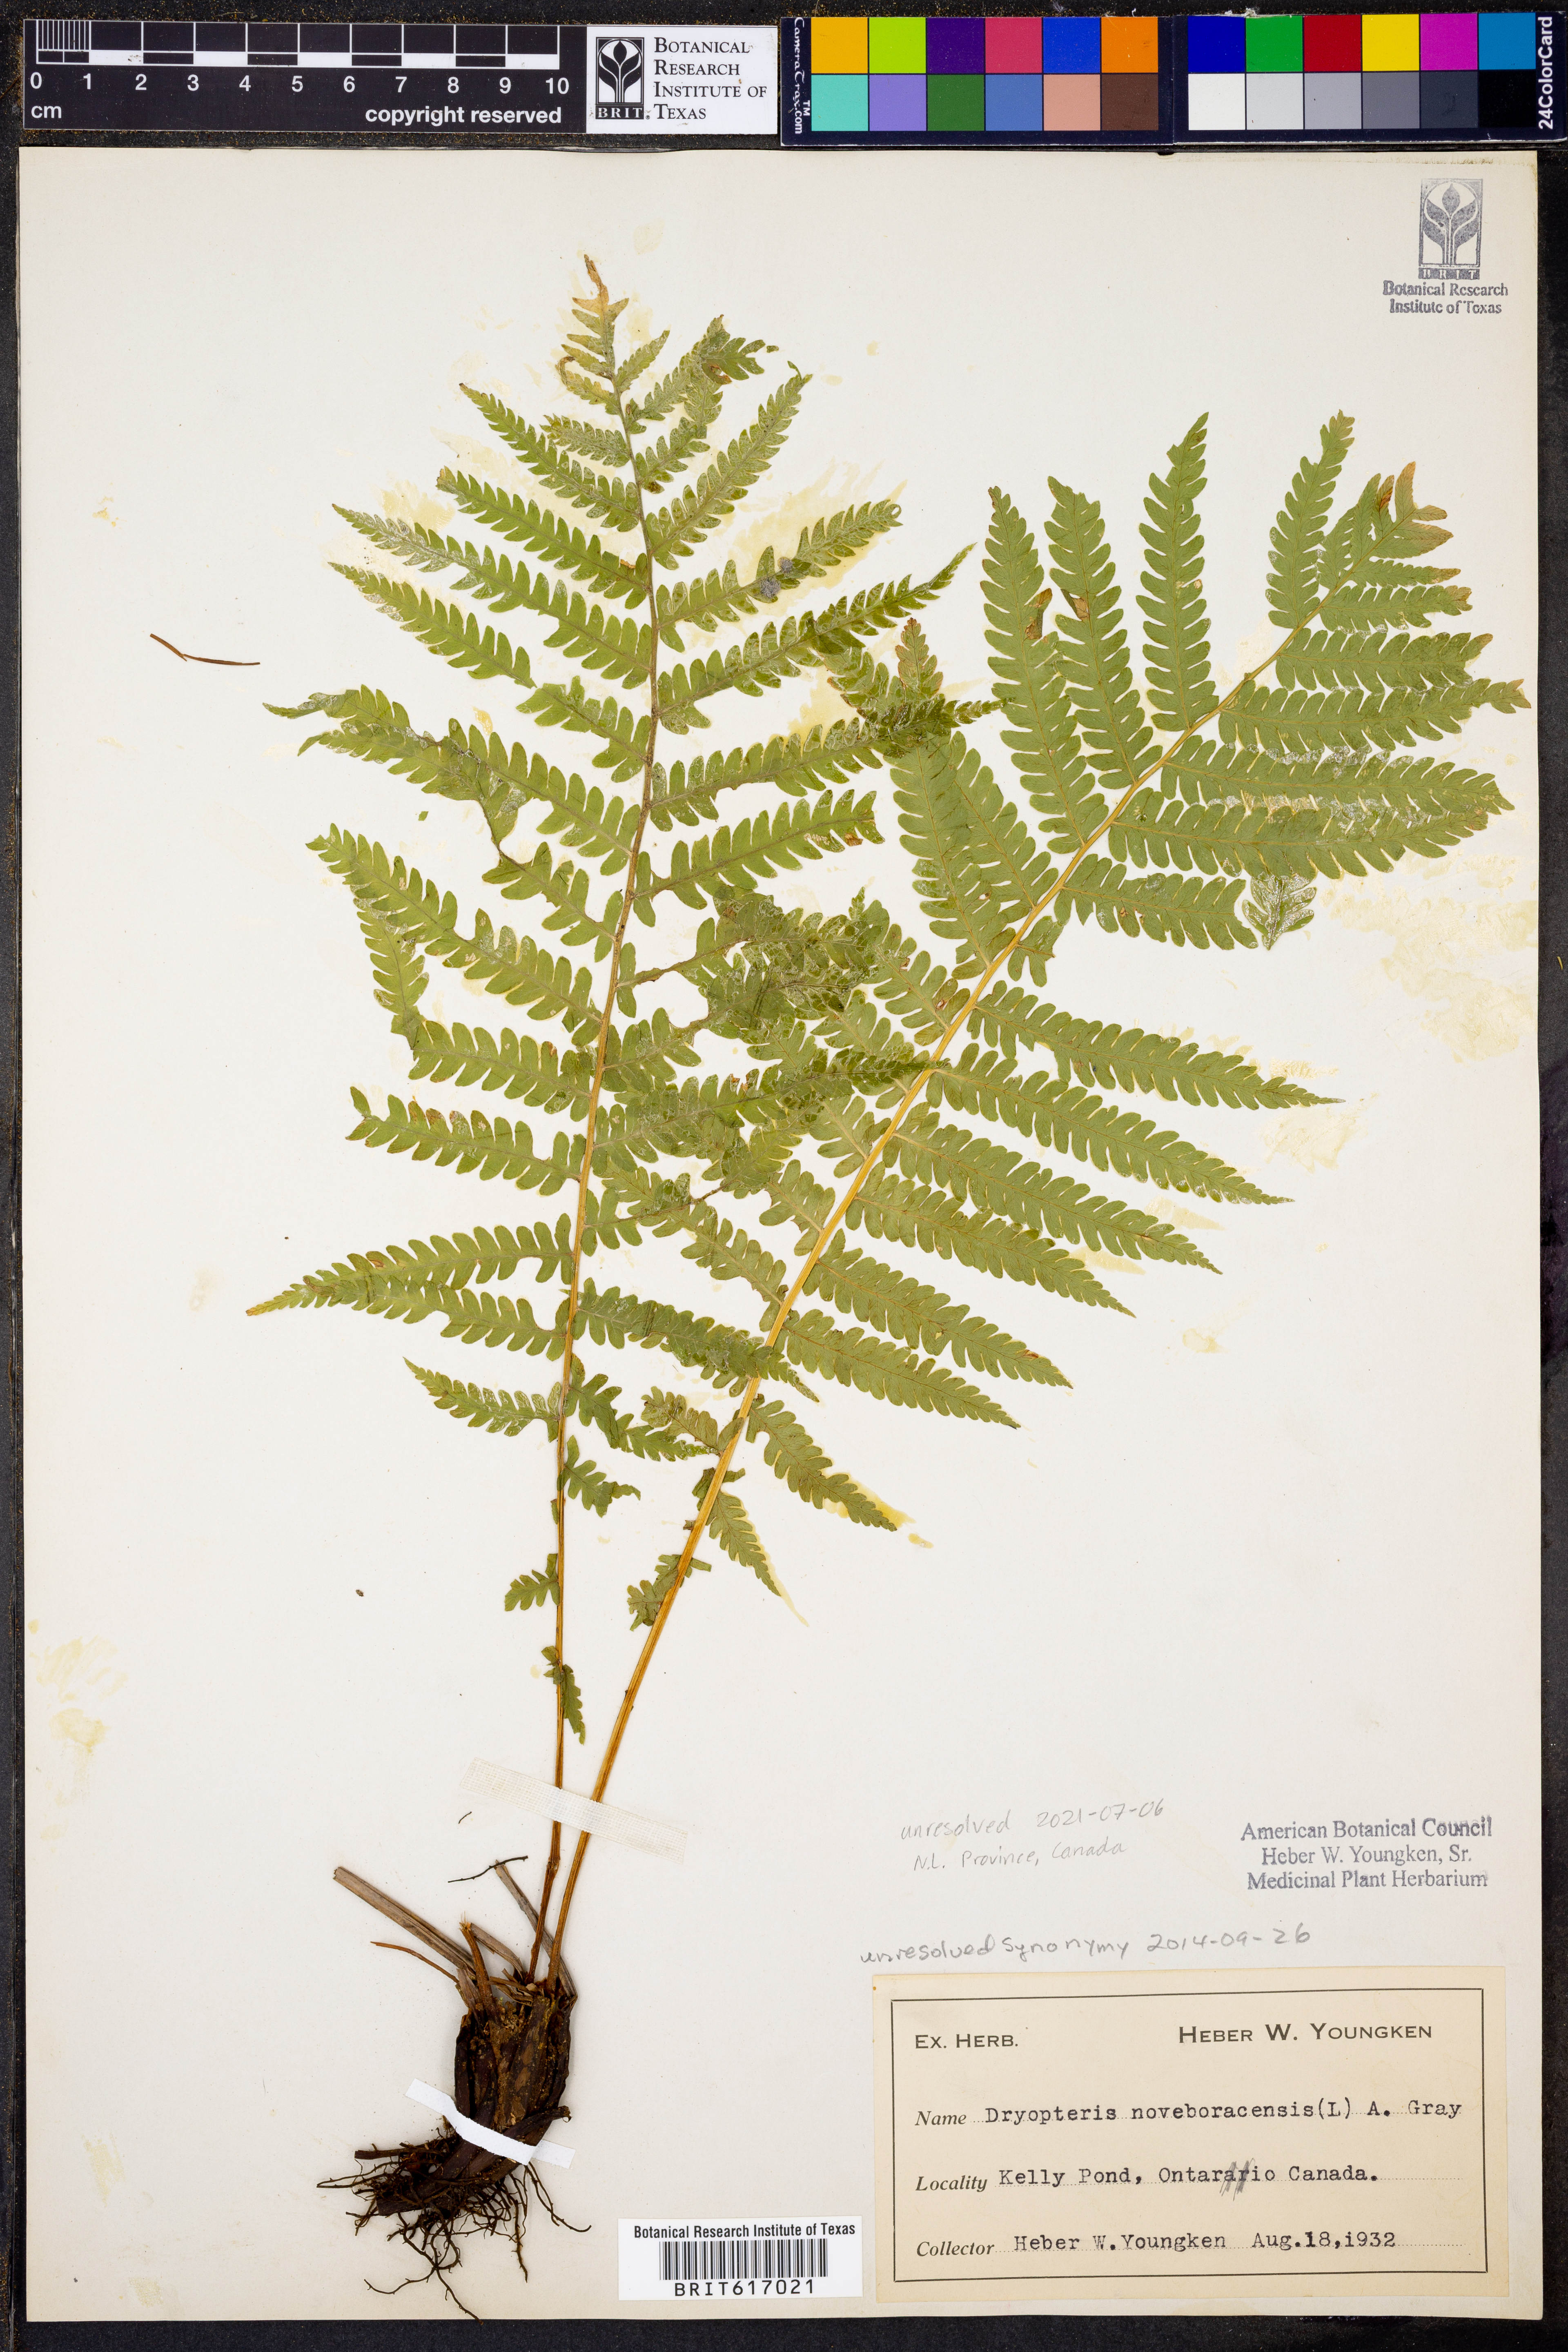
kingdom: Plantae
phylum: Tracheophyta
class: Polypodiopsida
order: Polypodiales
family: Thelypteridaceae
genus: Amauropelta
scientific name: Amauropelta noveboracensis
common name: New york fern
